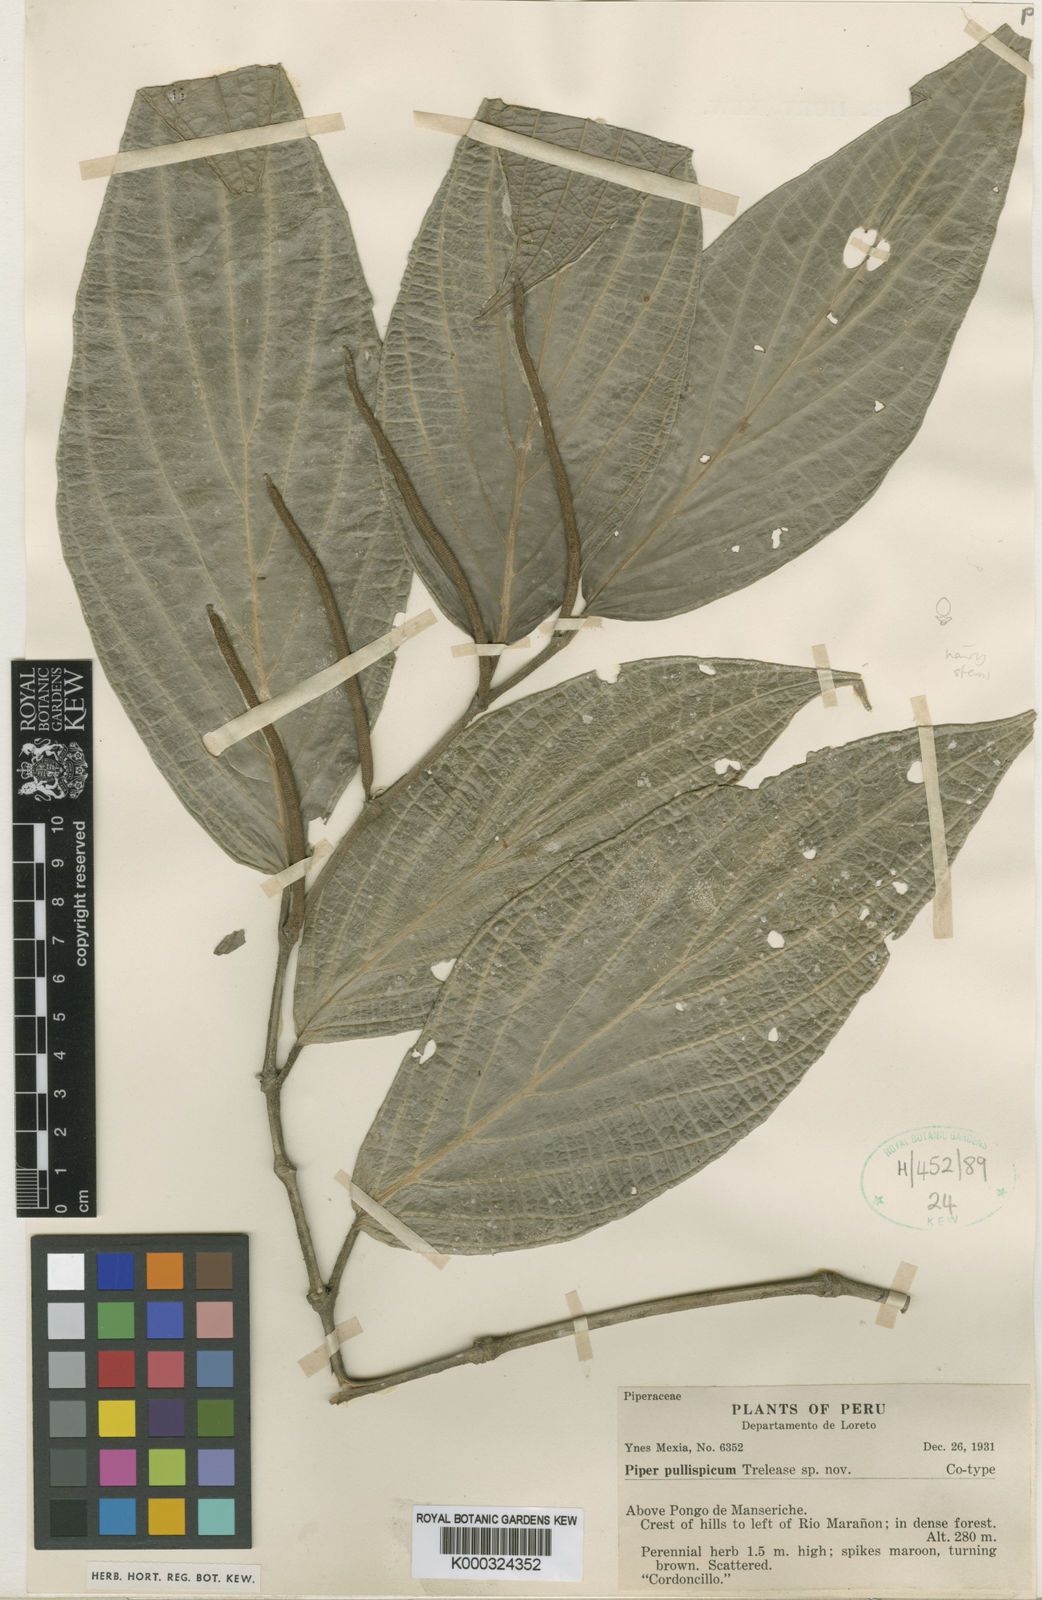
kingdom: Plantae
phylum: Tracheophyta
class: Magnoliopsida
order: Piperales
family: Piperaceae
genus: Piper
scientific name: Piper arboreum
